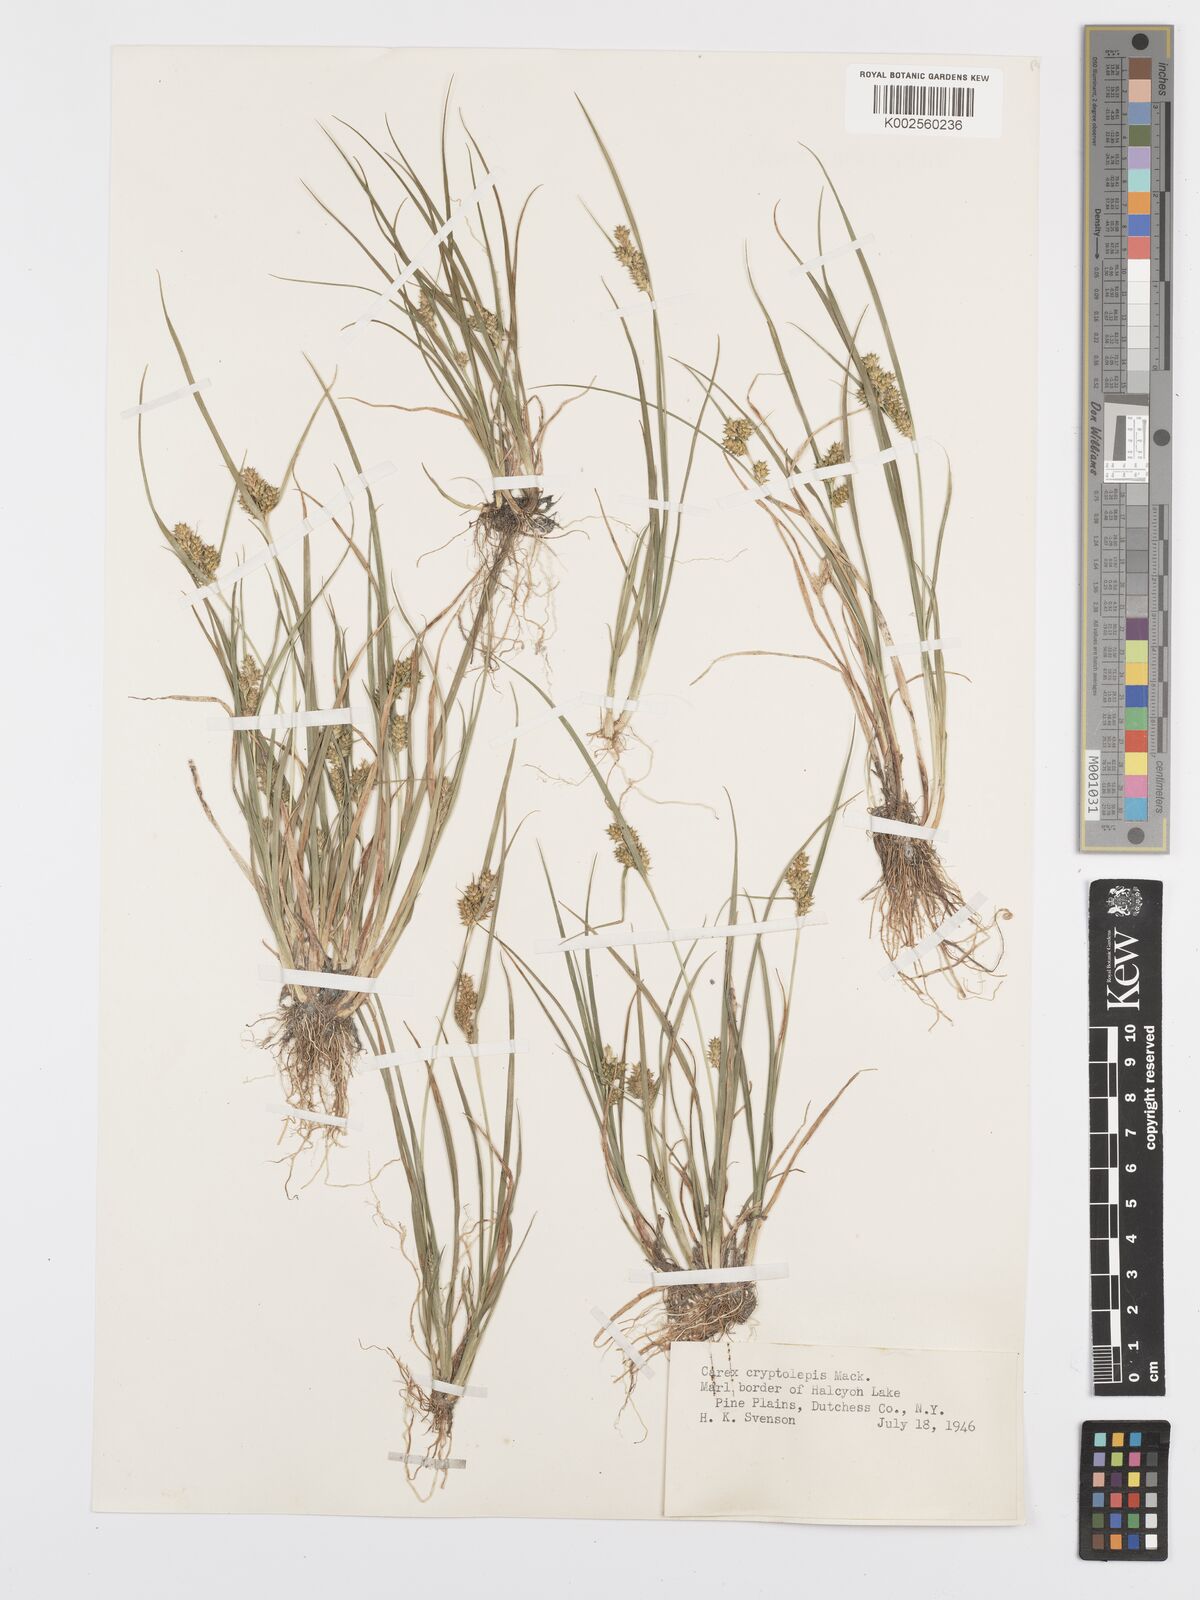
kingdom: Plantae
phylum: Tracheophyta
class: Liliopsida
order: Poales
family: Cyperaceae
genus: Carex
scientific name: Carex cryptolepis
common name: Northeastern sedge
